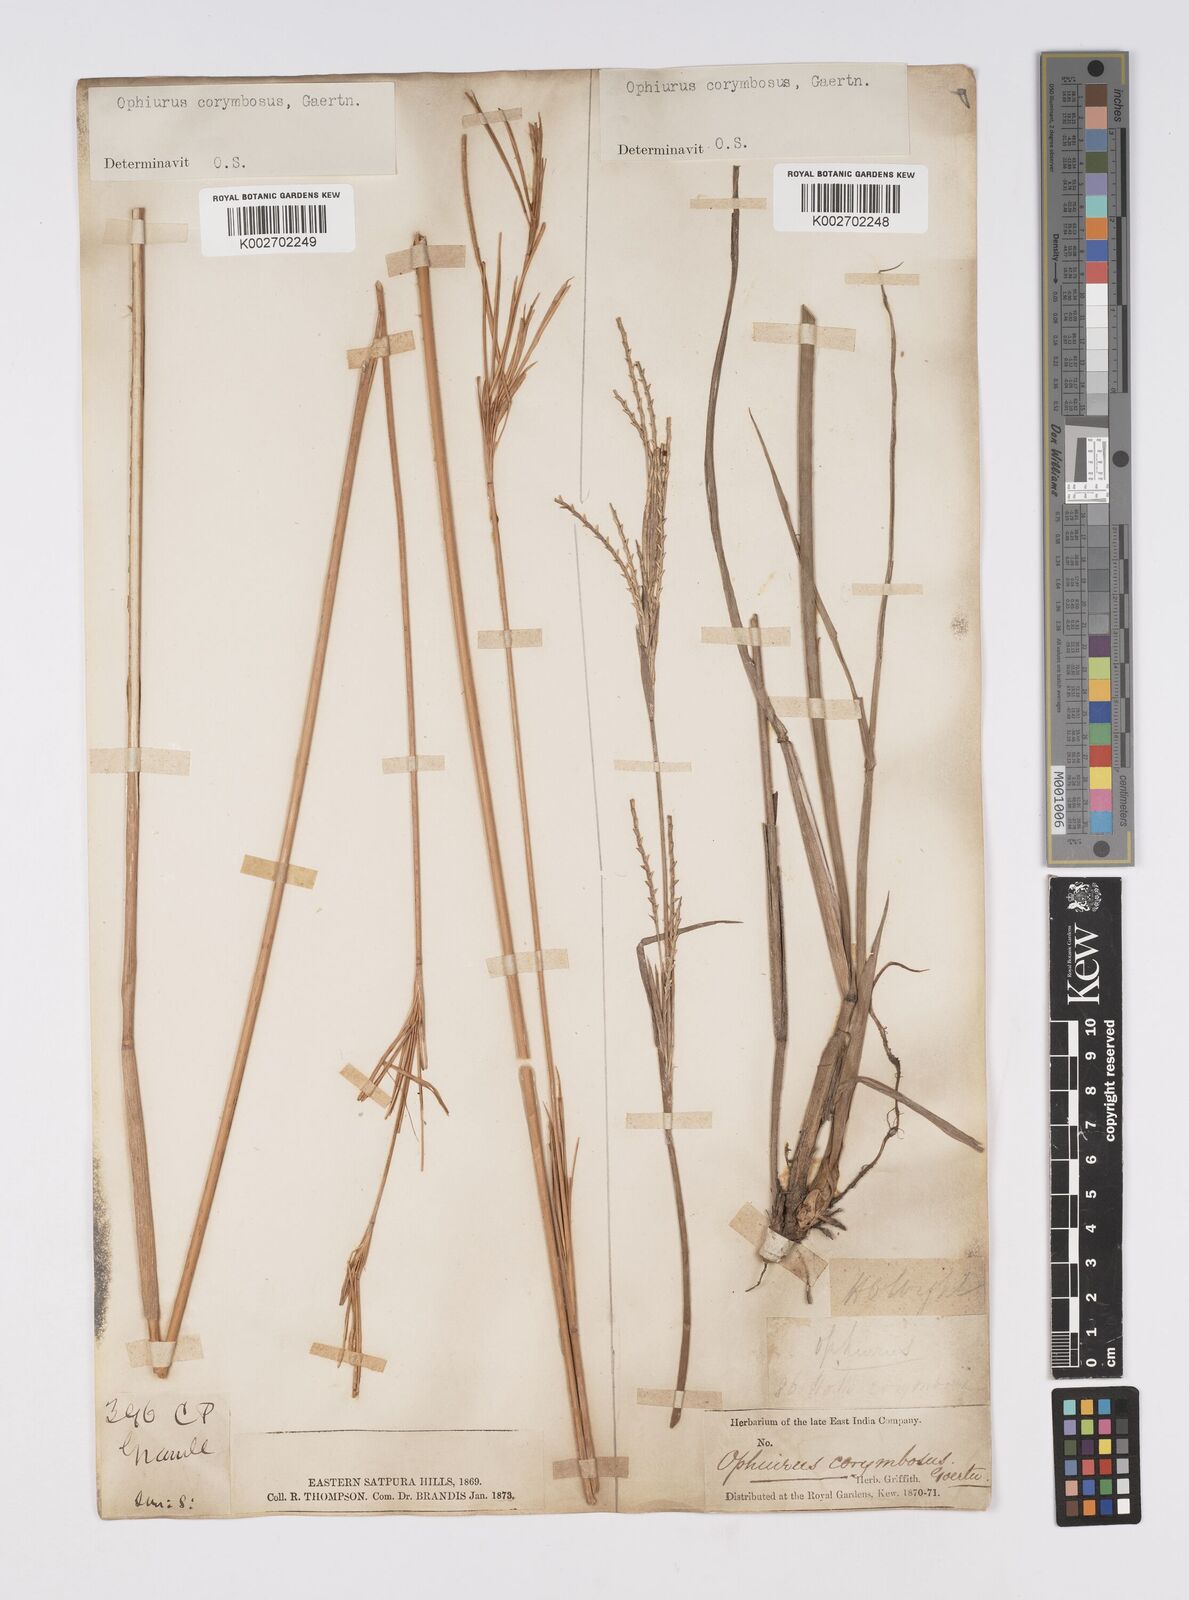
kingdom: Plantae
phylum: Tracheophyta
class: Liliopsida
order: Poales
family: Poaceae
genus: Ophiuros
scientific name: Ophiuros exaltatus
